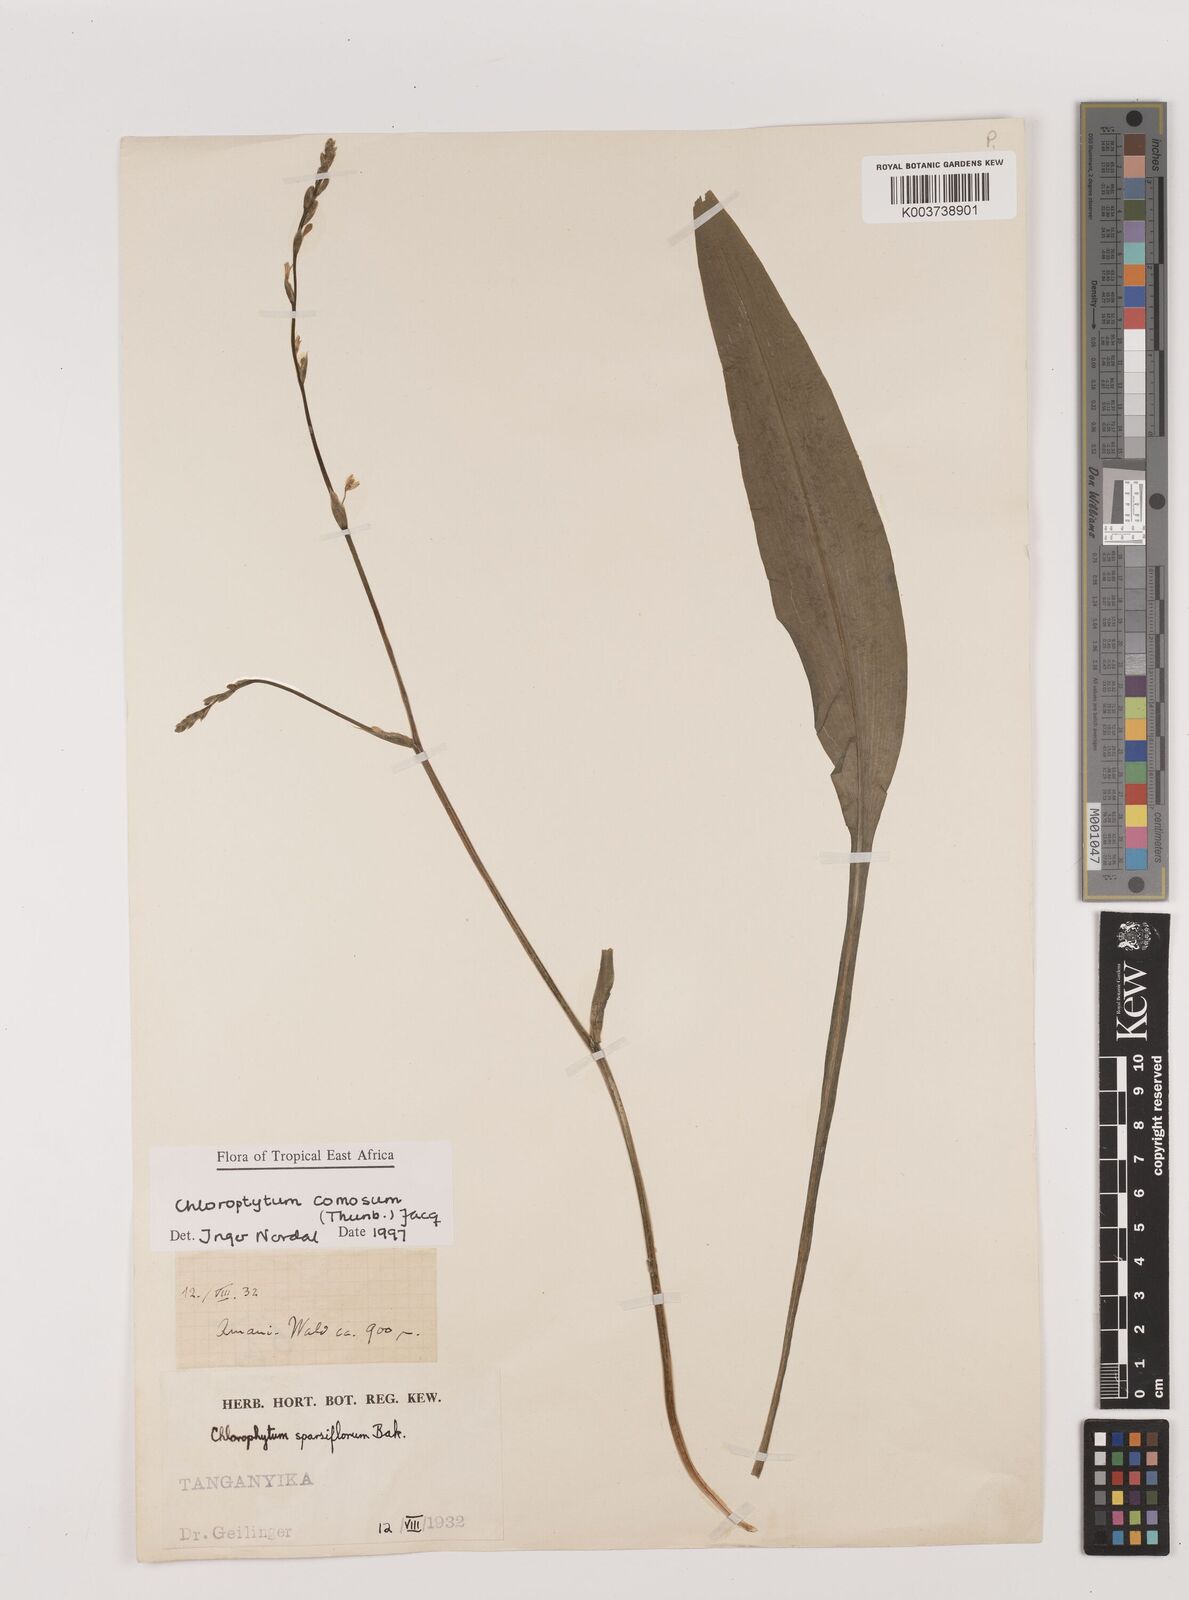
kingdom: Plantae
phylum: Tracheophyta
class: Liliopsida
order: Asparagales
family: Asparagaceae
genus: Chlorophytum
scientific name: Chlorophytum comosum
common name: Spider plant
